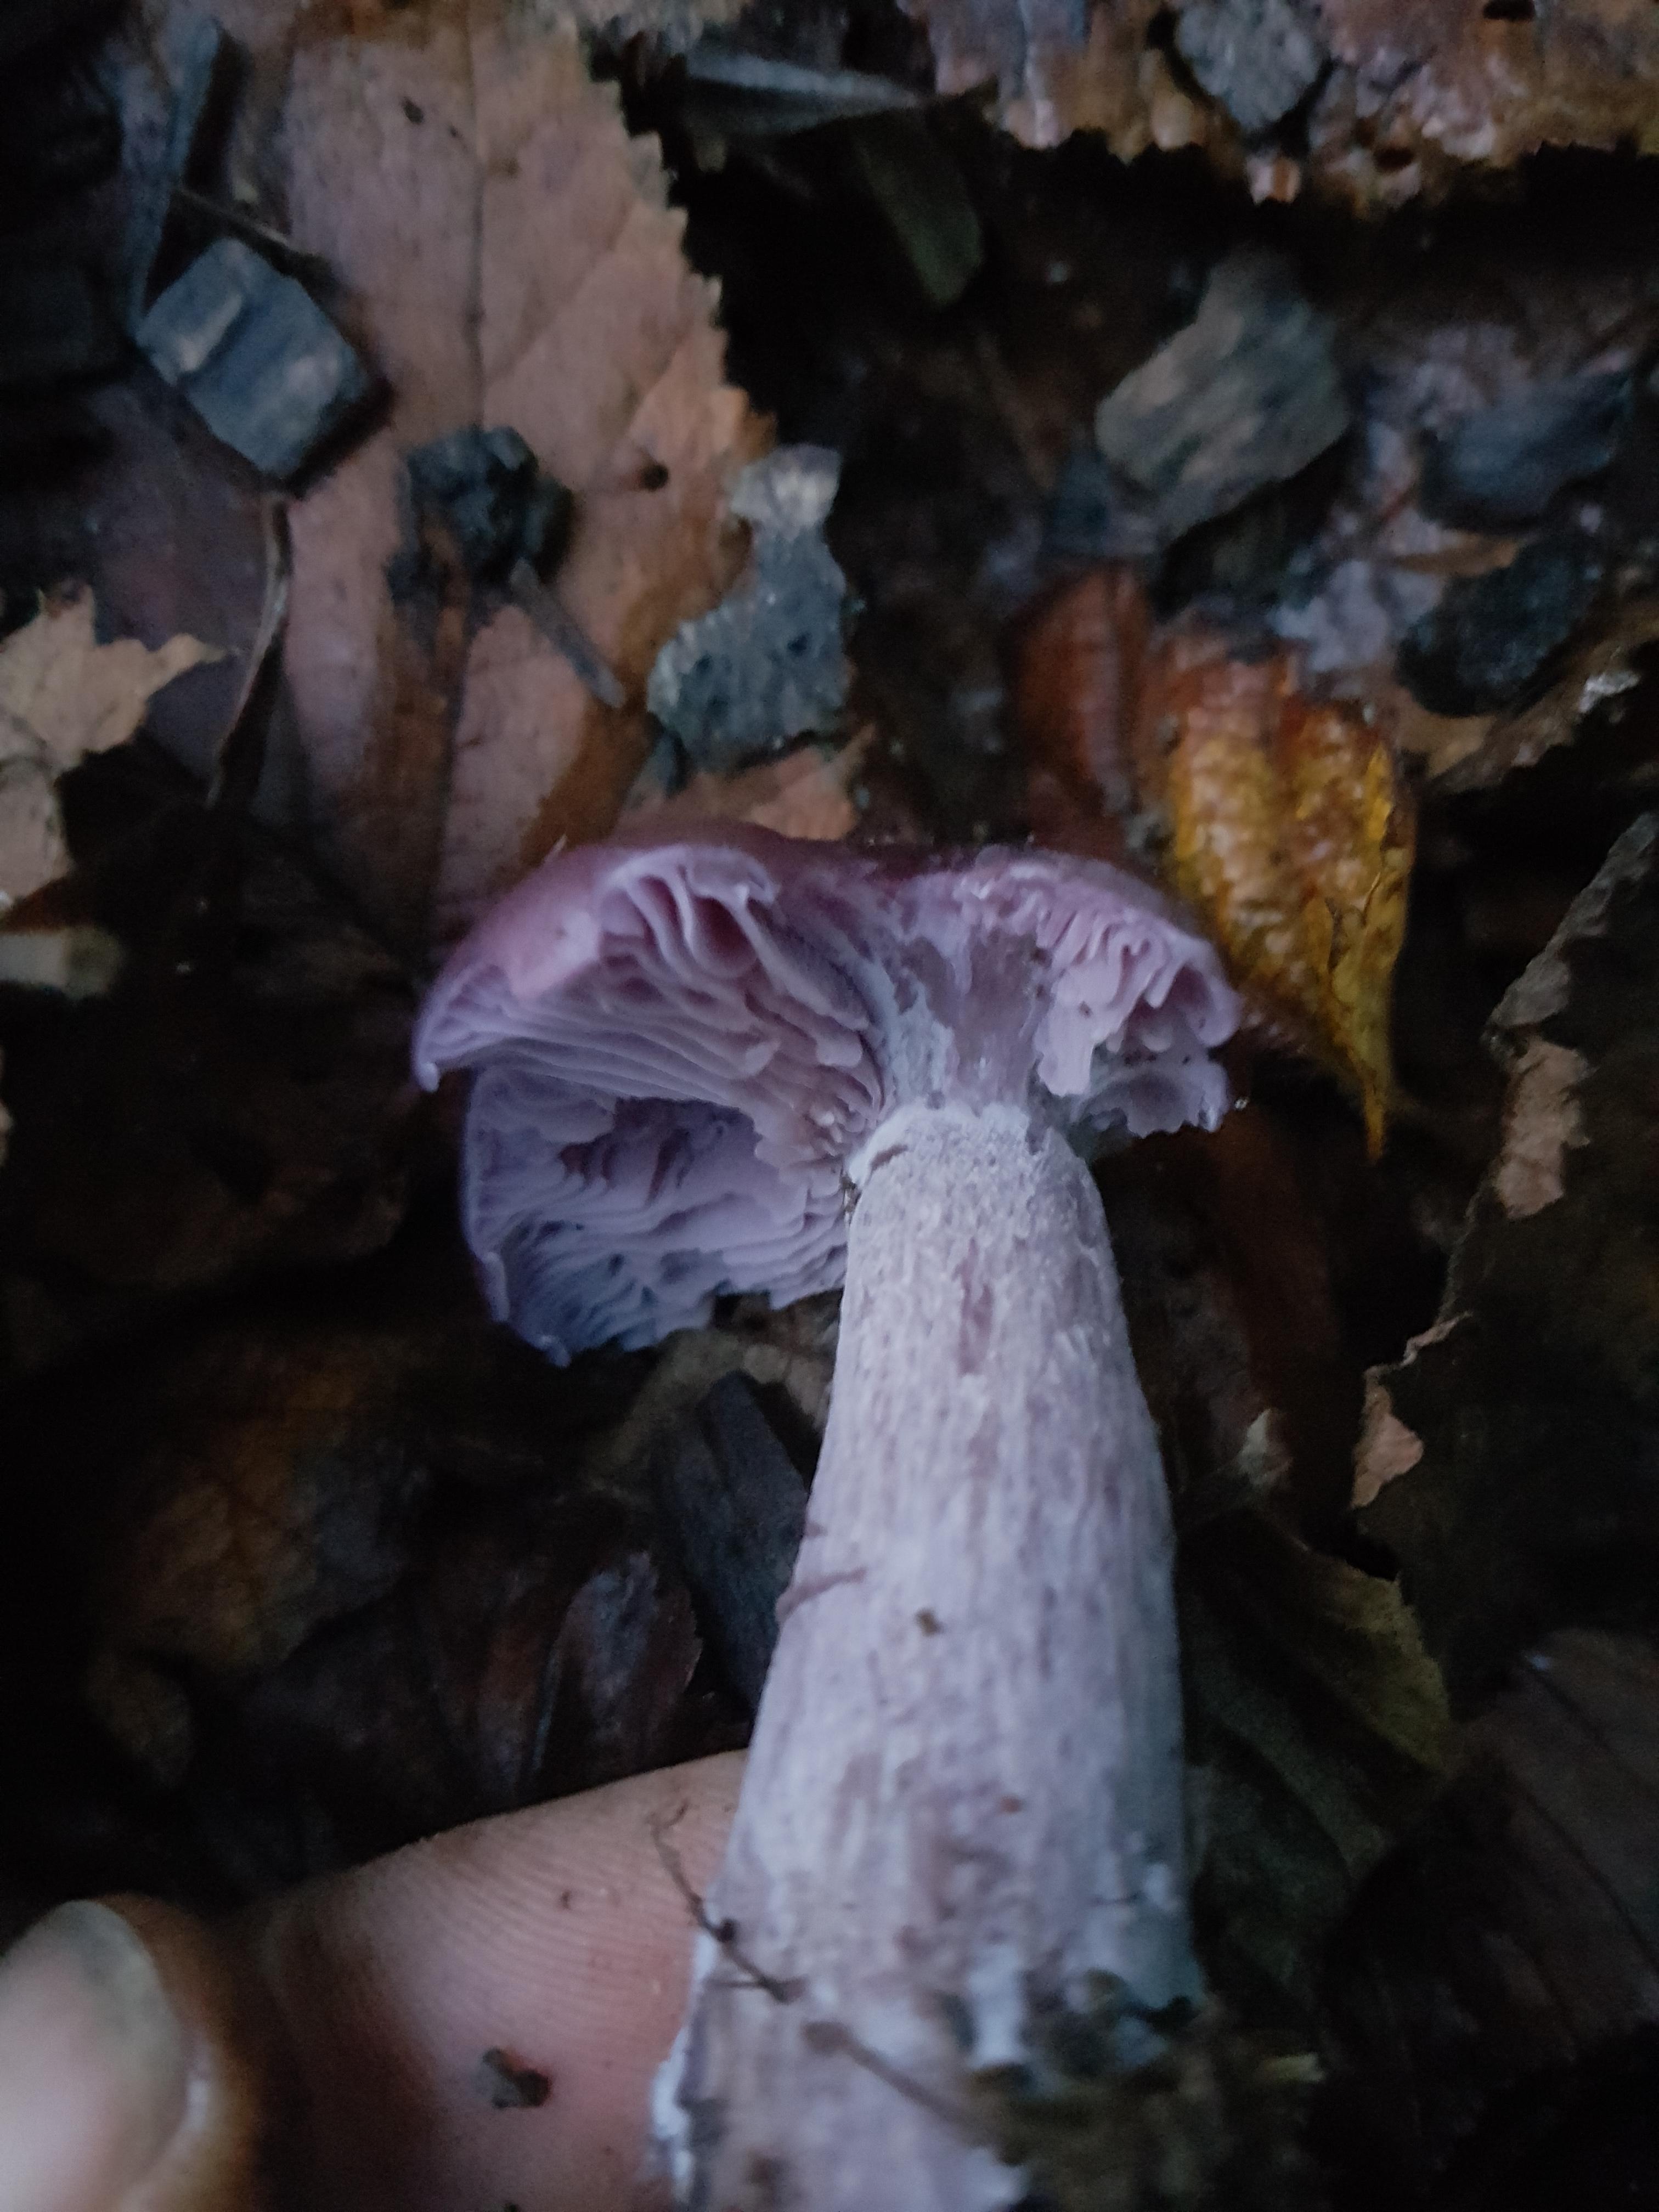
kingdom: Fungi
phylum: Basidiomycota
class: Agaricomycetes
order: Agaricales
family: Tricholomataceae
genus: Lepista
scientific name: Lepista nuda
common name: violet hekseringshat
